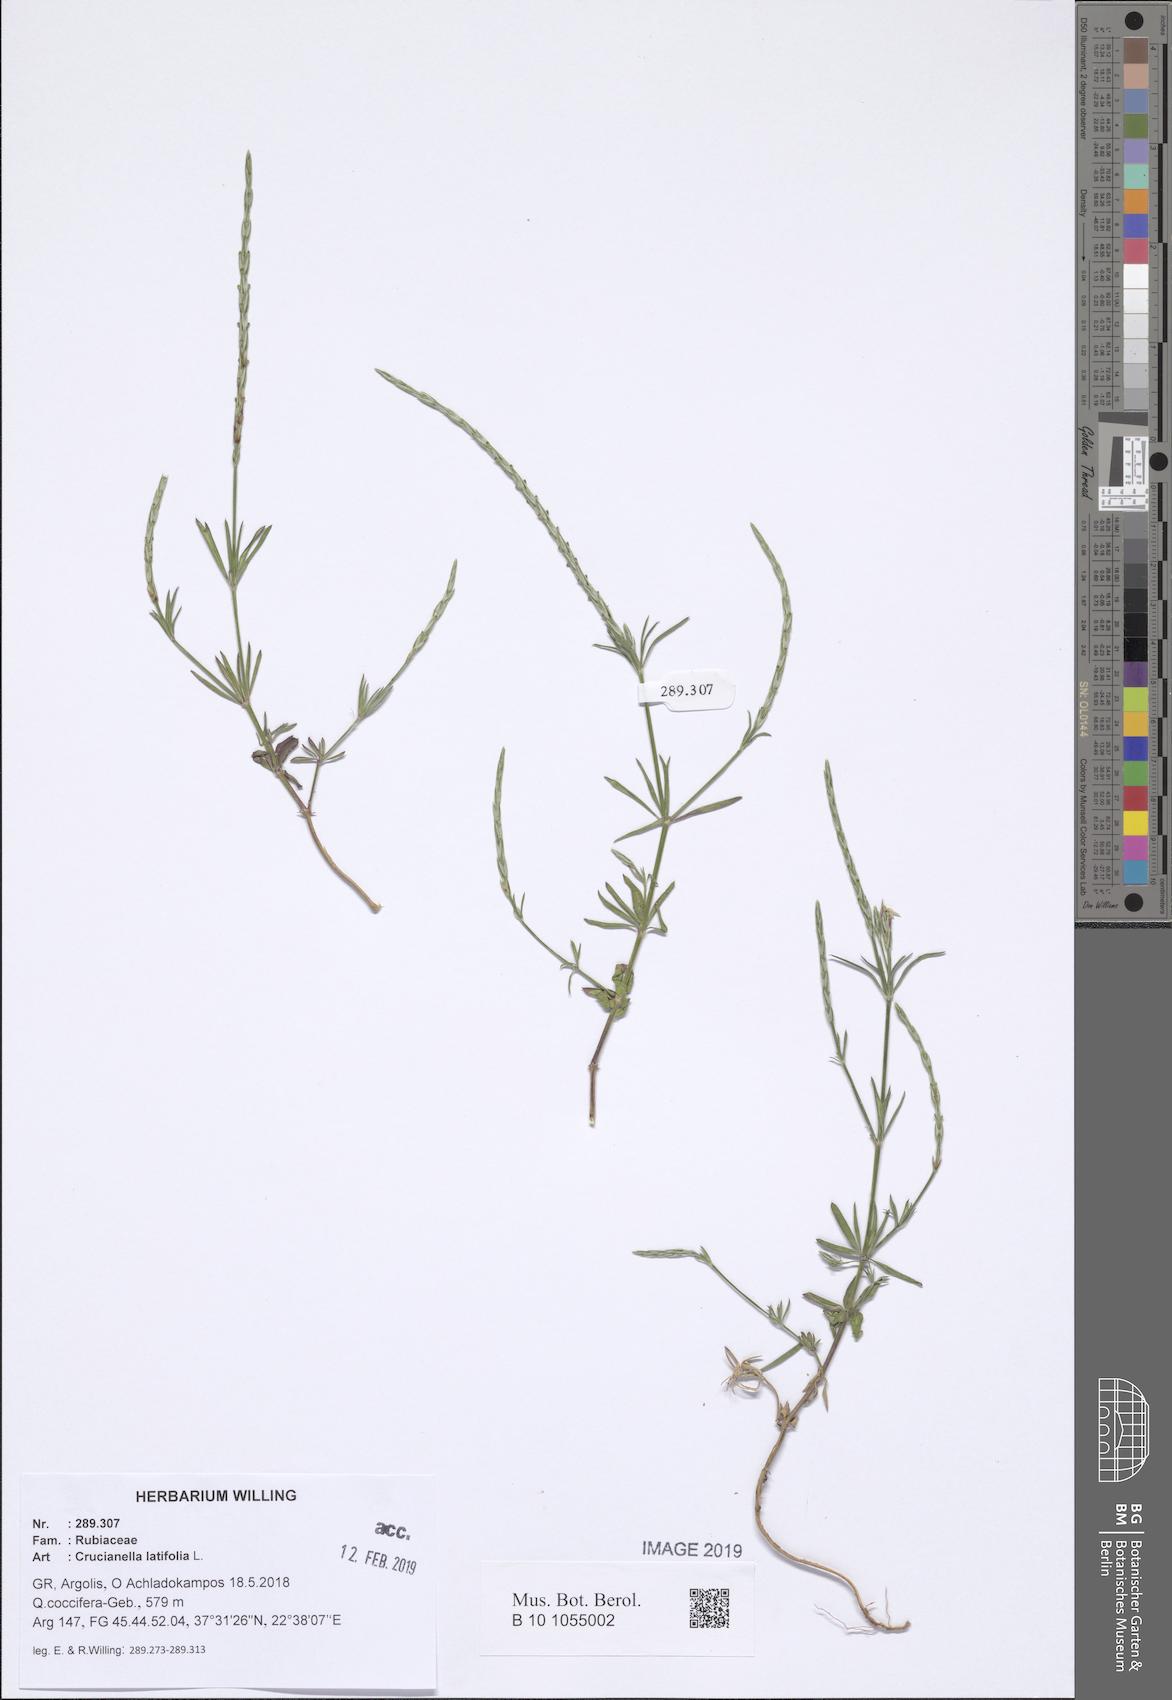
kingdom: Plantae
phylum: Tracheophyta
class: Magnoliopsida
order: Gentianales
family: Rubiaceae
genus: Crucianella
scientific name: Crucianella latifolia
